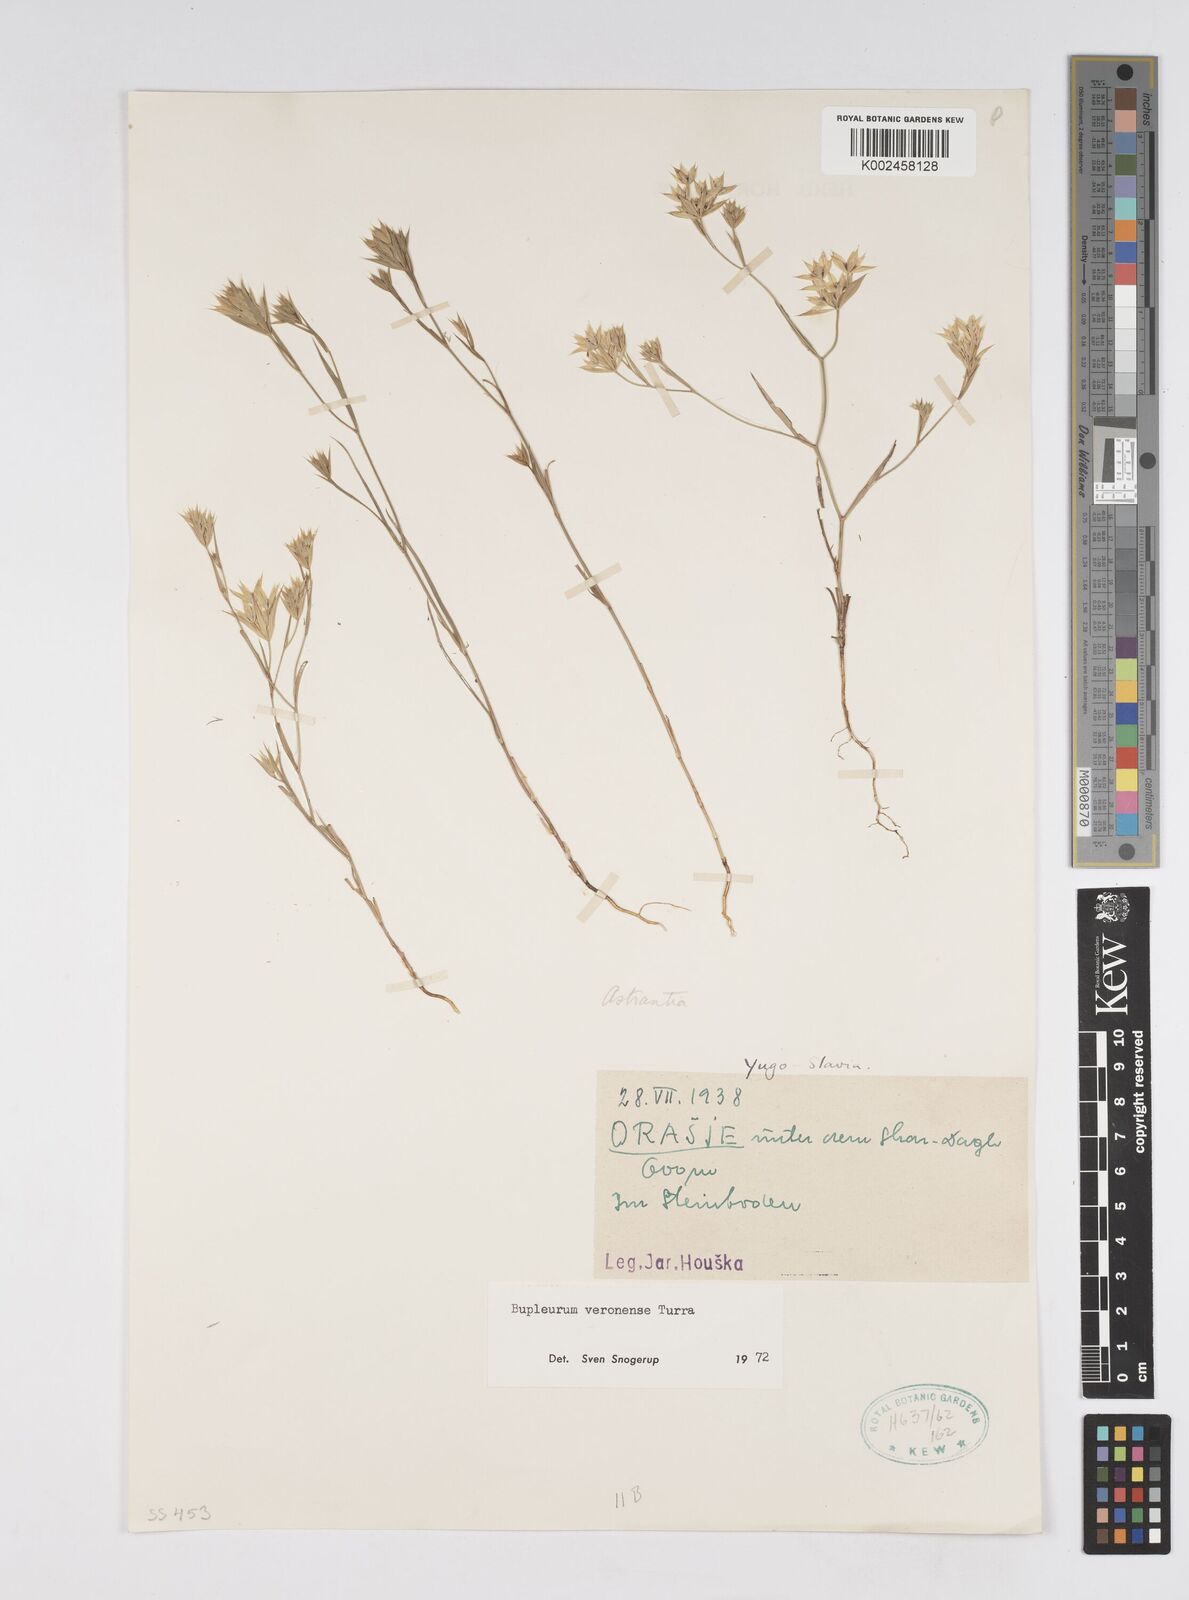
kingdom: Plantae
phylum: Tracheophyta
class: Magnoliopsida
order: Apiales
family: Apiaceae
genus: Bupleurum
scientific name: Bupleurum baldense
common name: Small hare's-ear
